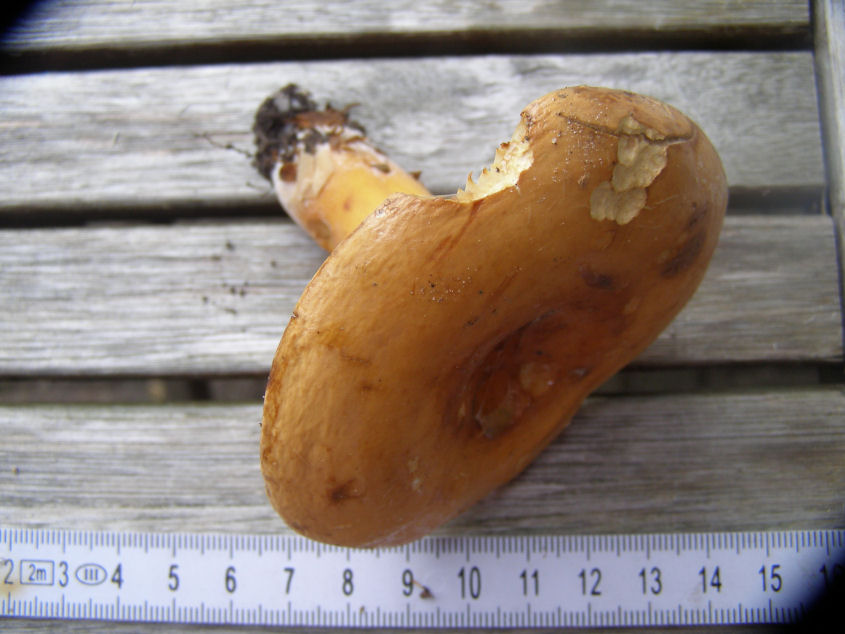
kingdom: Fungi
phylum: Basidiomycota
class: Agaricomycetes
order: Russulales
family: Russulaceae
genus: Lactifluus
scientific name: Lactifluus volemus
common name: spiselig mælkehat
